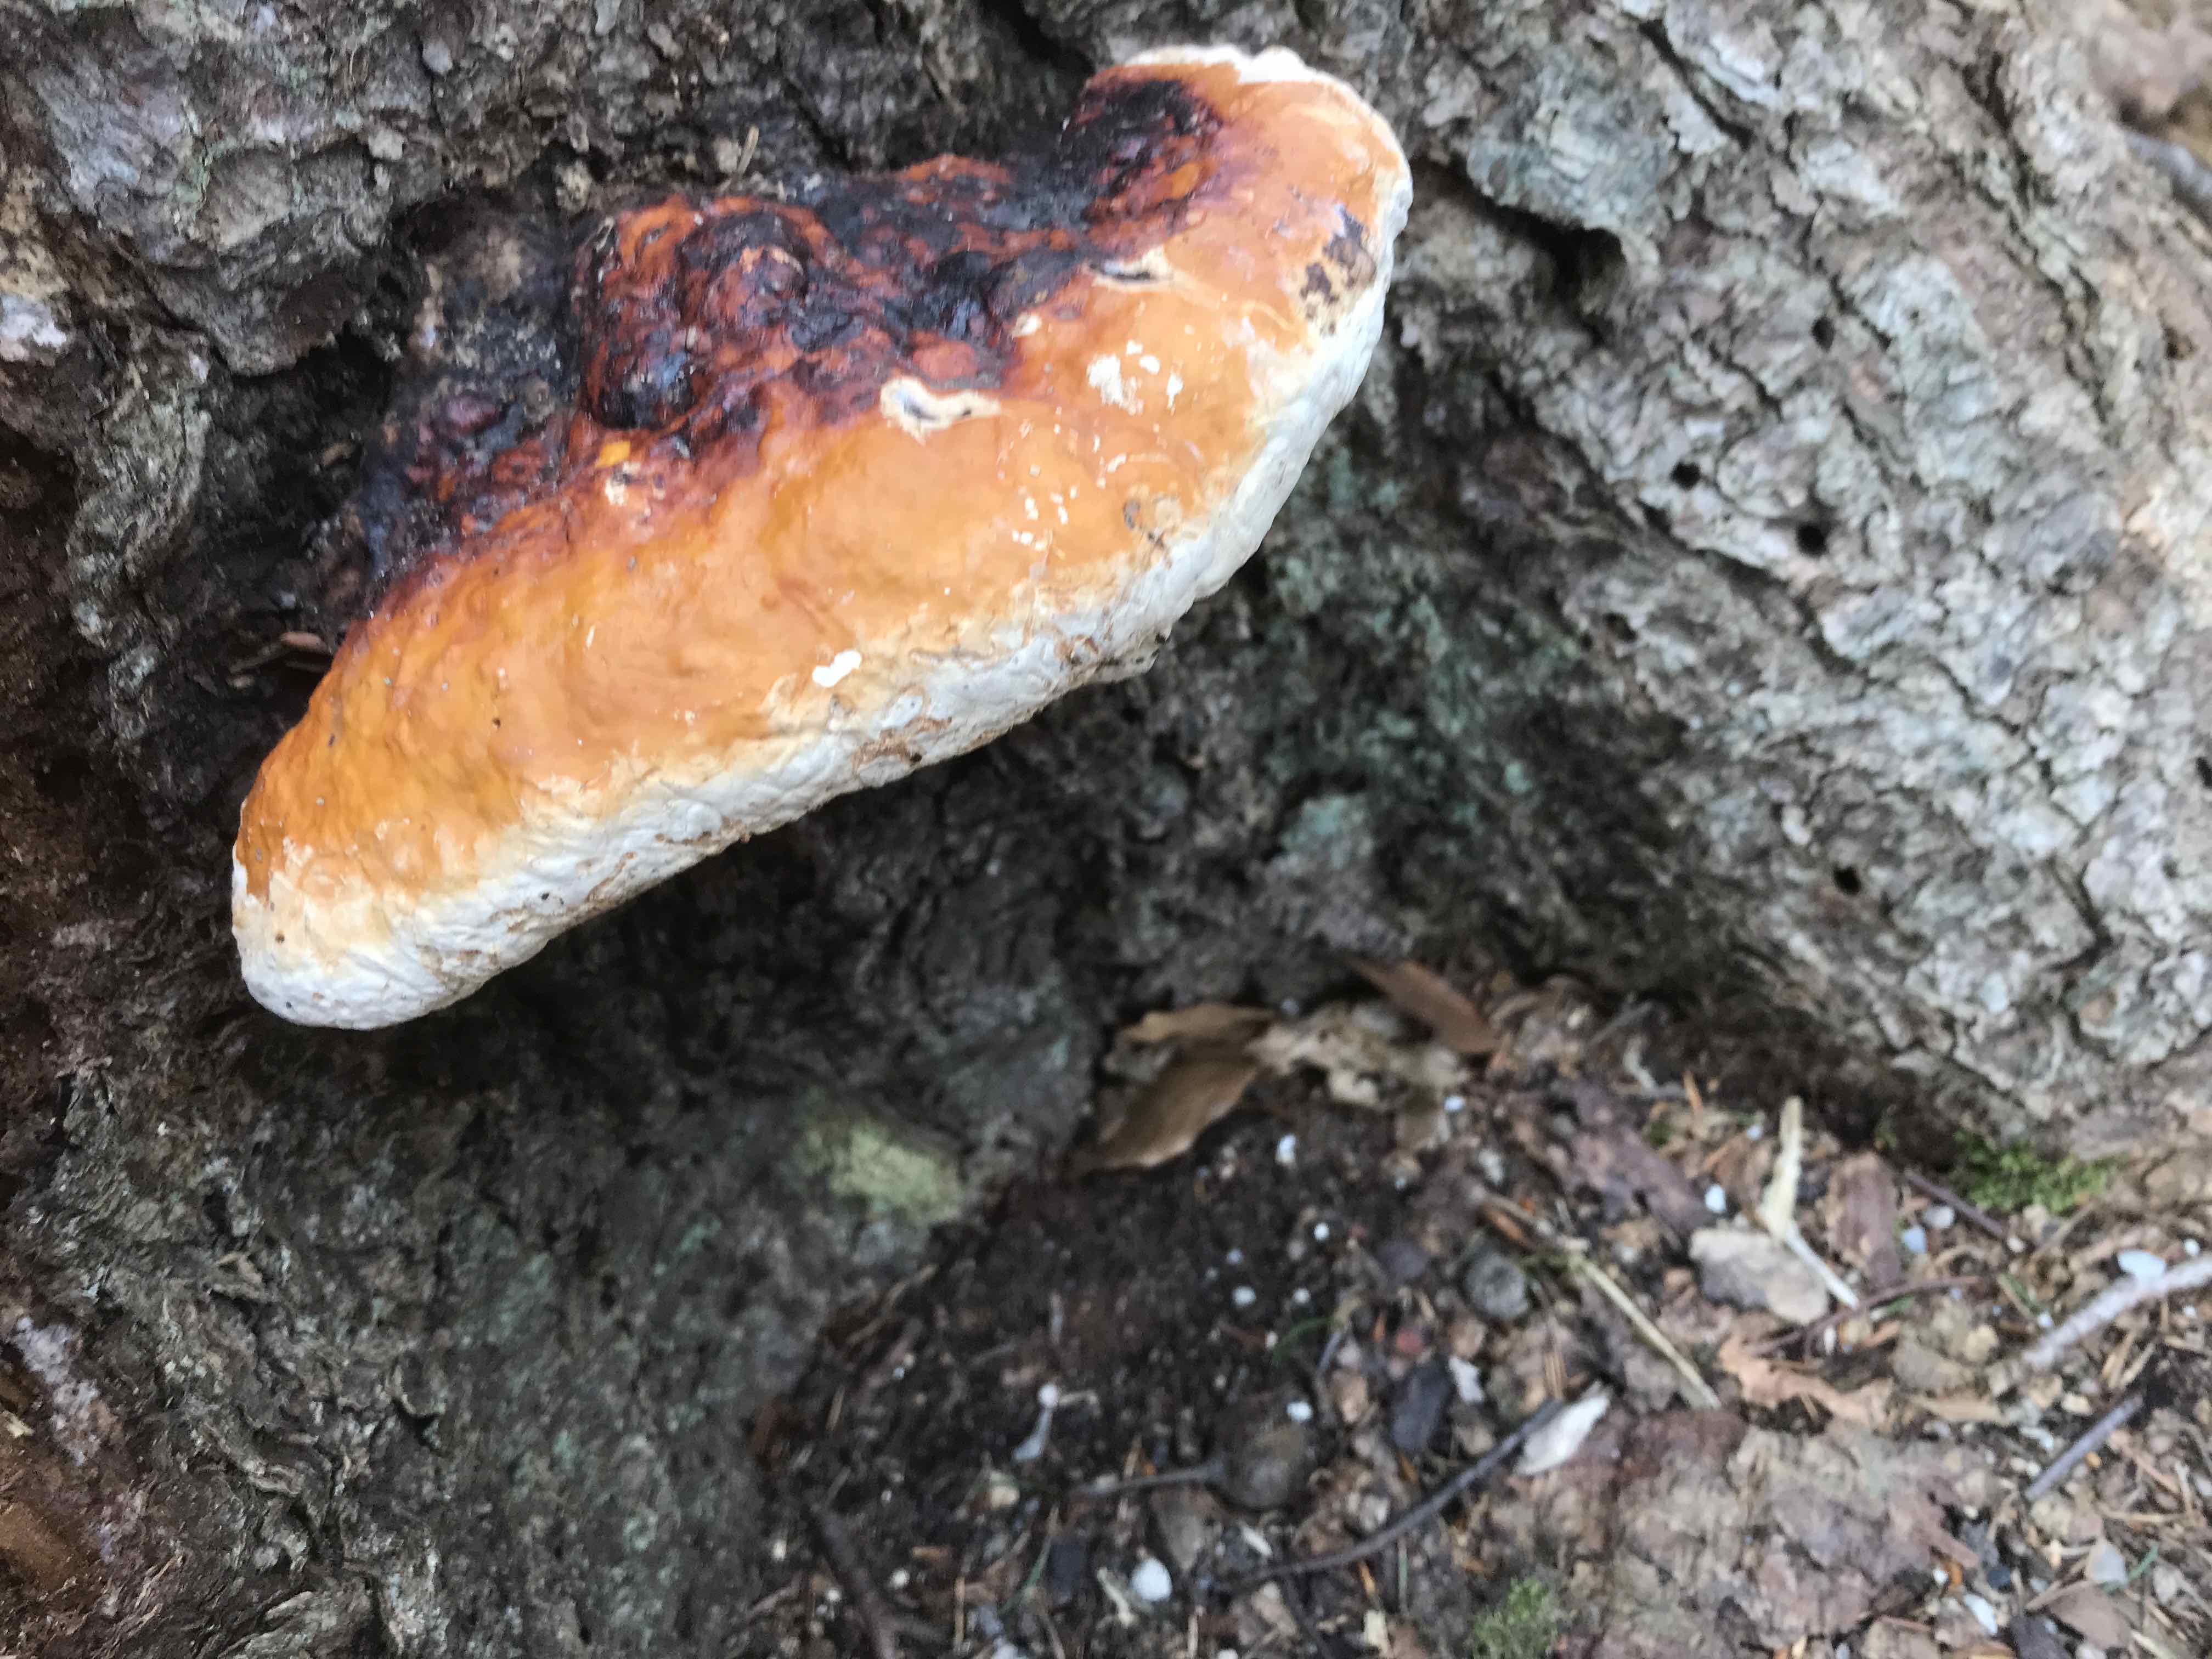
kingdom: Fungi
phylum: Basidiomycota
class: Agaricomycetes
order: Polyporales
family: Fomitopsidaceae
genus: Fomitopsis
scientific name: Fomitopsis pinicola
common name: randbæltet hovporesvamp
